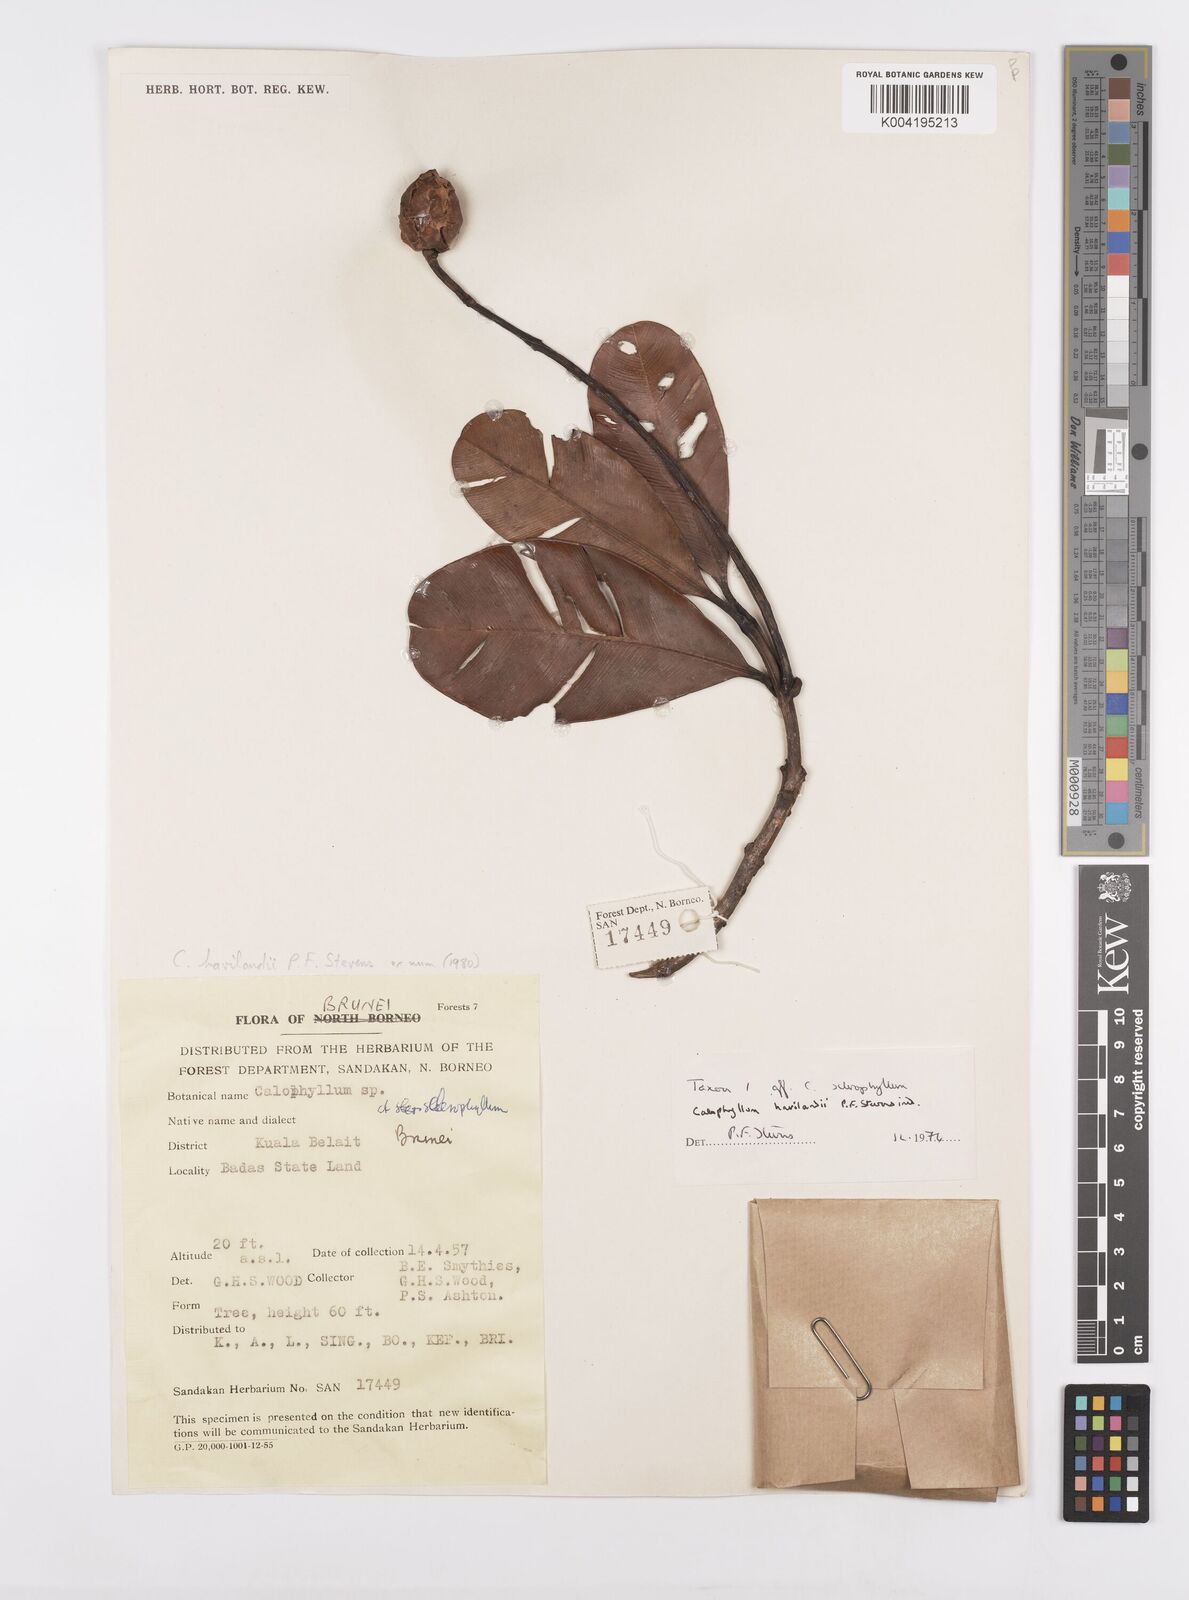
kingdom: Plantae
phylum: Tracheophyta
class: Magnoliopsida
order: Malpighiales
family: Calophyllaceae
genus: Calophyllum
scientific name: Calophyllum havilandii
